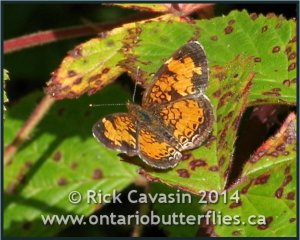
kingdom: Animalia
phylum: Arthropoda
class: Insecta
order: Lepidoptera
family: Nymphalidae
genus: Phyciodes
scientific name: Phyciodes tharos
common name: Northern Crescent
